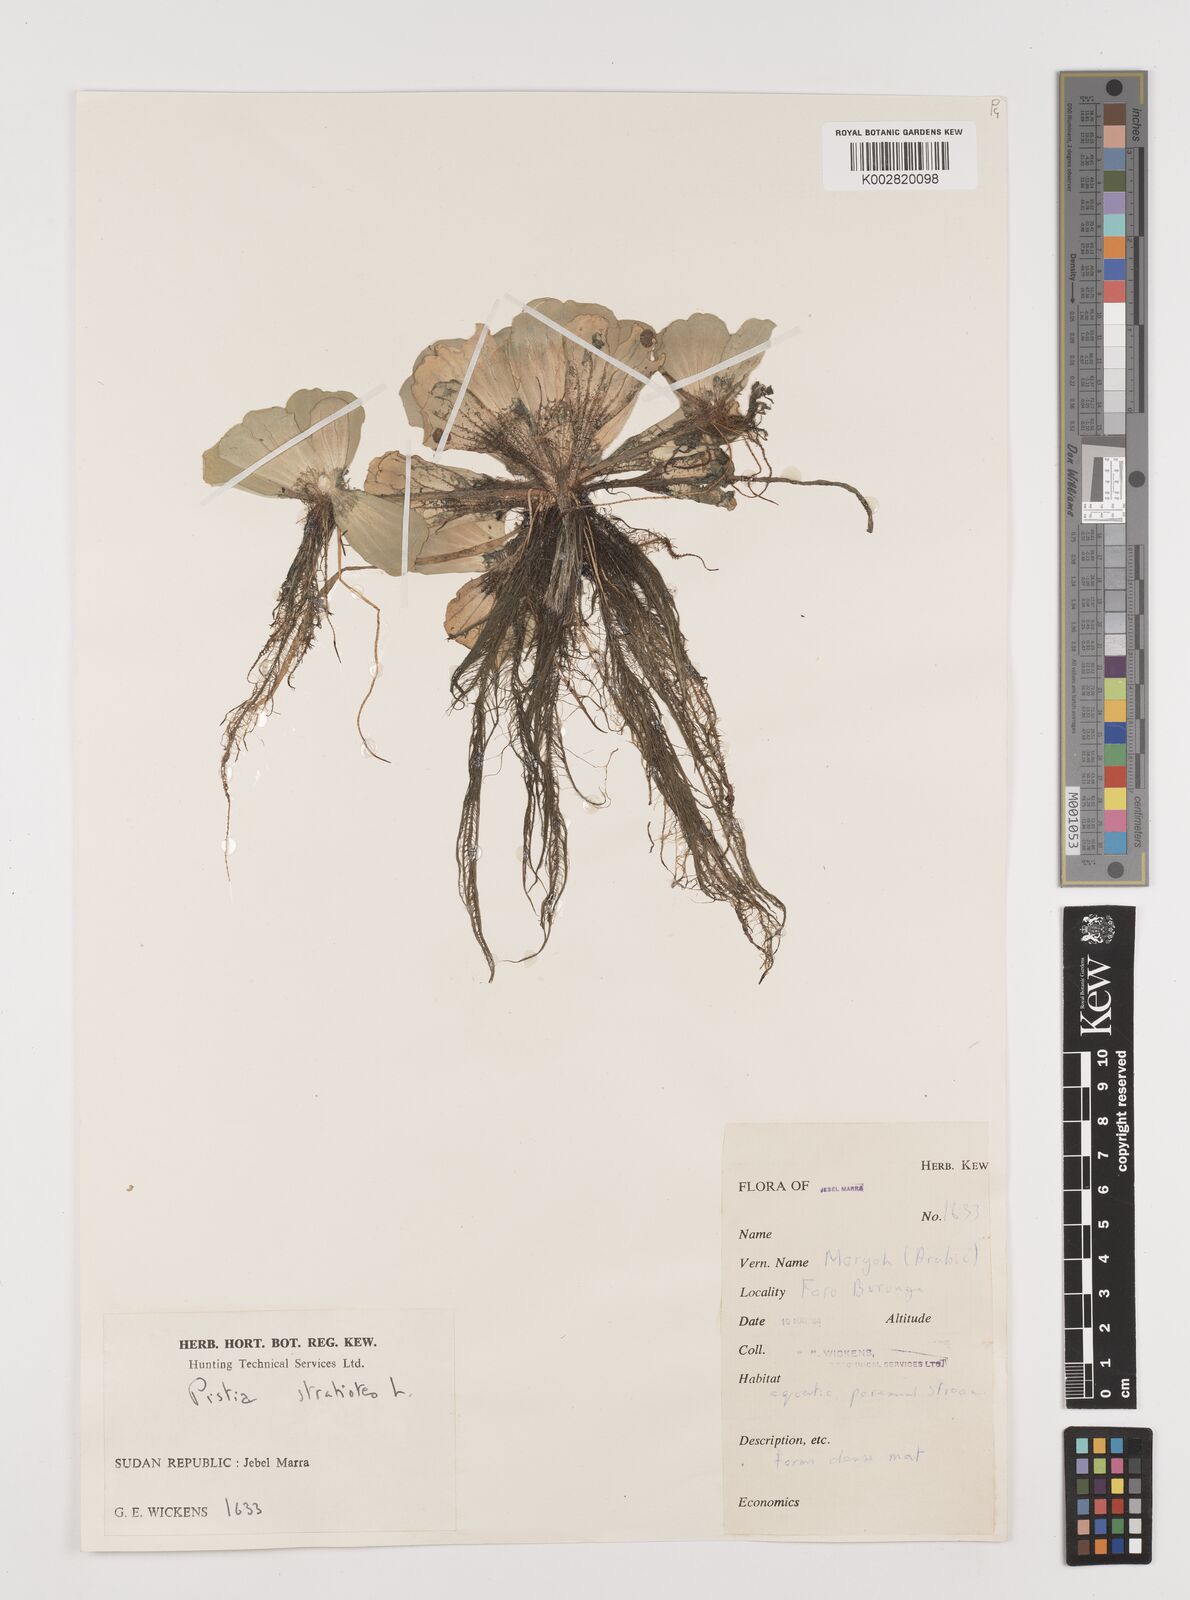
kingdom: Plantae
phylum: Tracheophyta
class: Liliopsida
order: Alismatales
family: Araceae
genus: Pistia
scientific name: Pistia stratiotes
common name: Water lettuce
